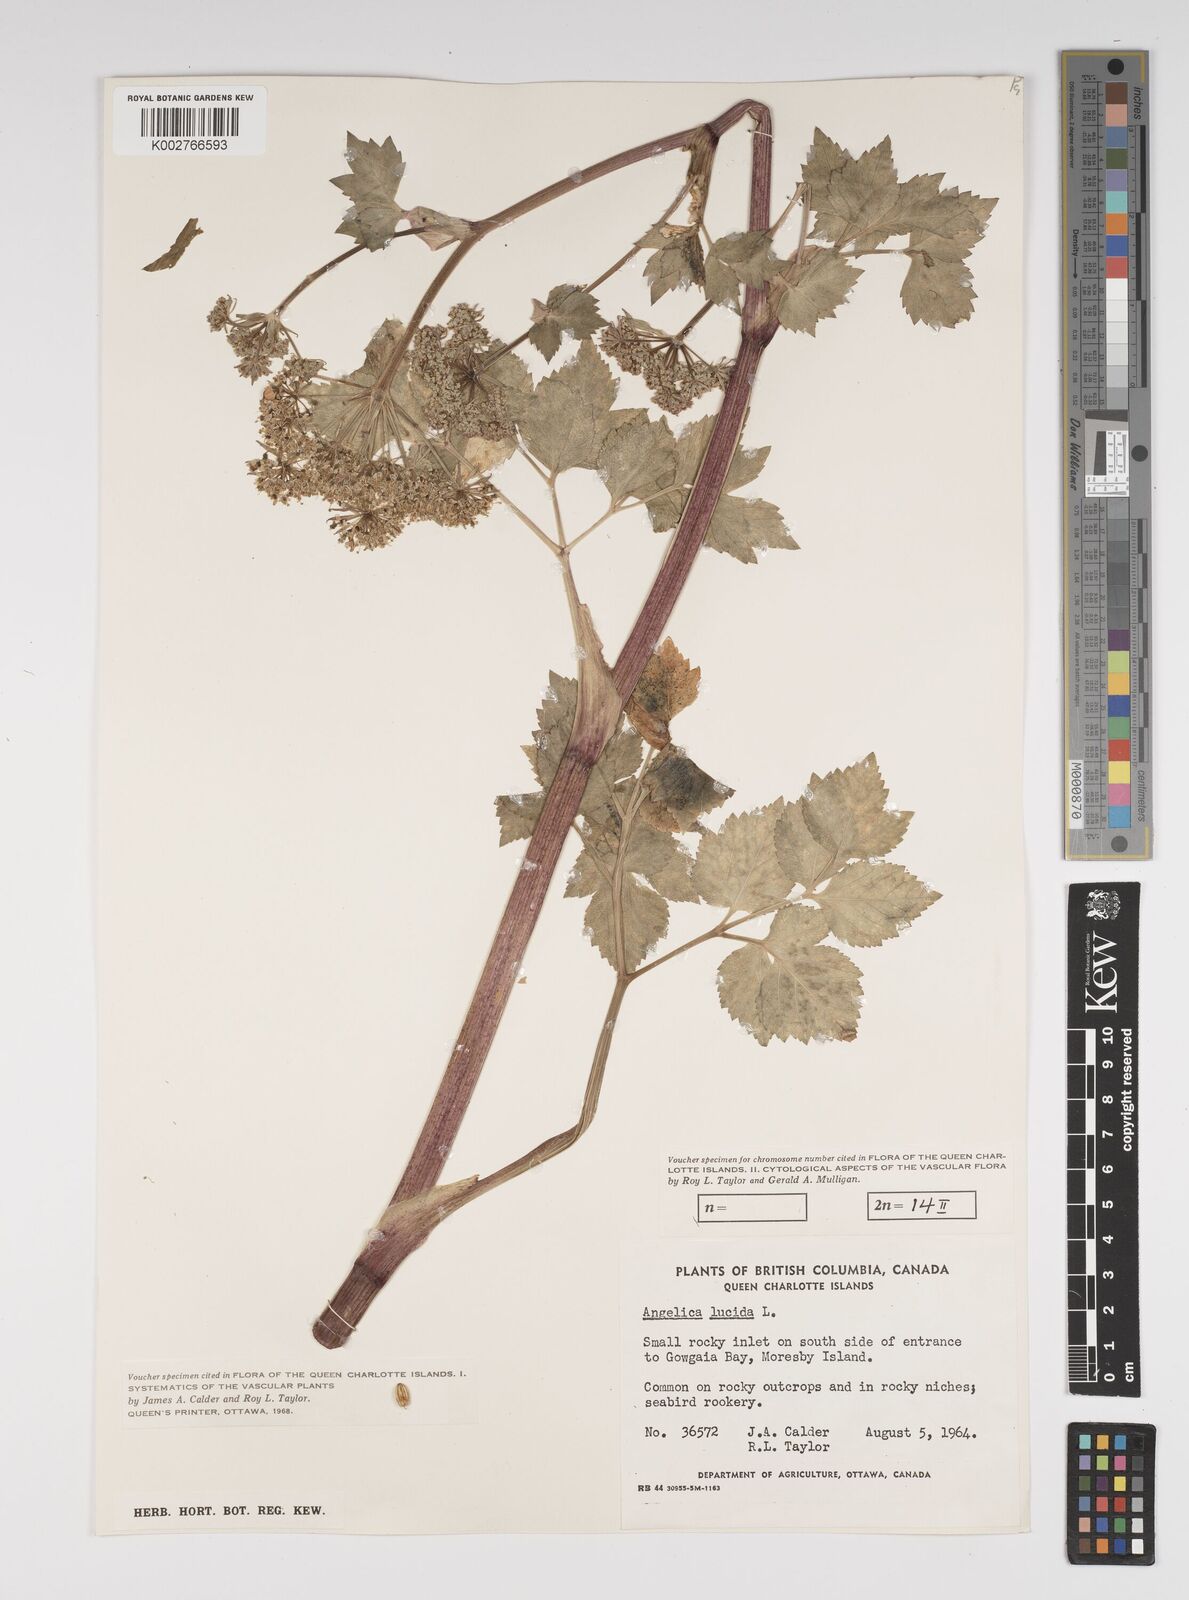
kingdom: Plantae
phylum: Tracheophyta
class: Magnoliopsida
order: Apiales
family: Apiaceae
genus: Angelica
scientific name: Angelica lucida
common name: Seabeach angelica
